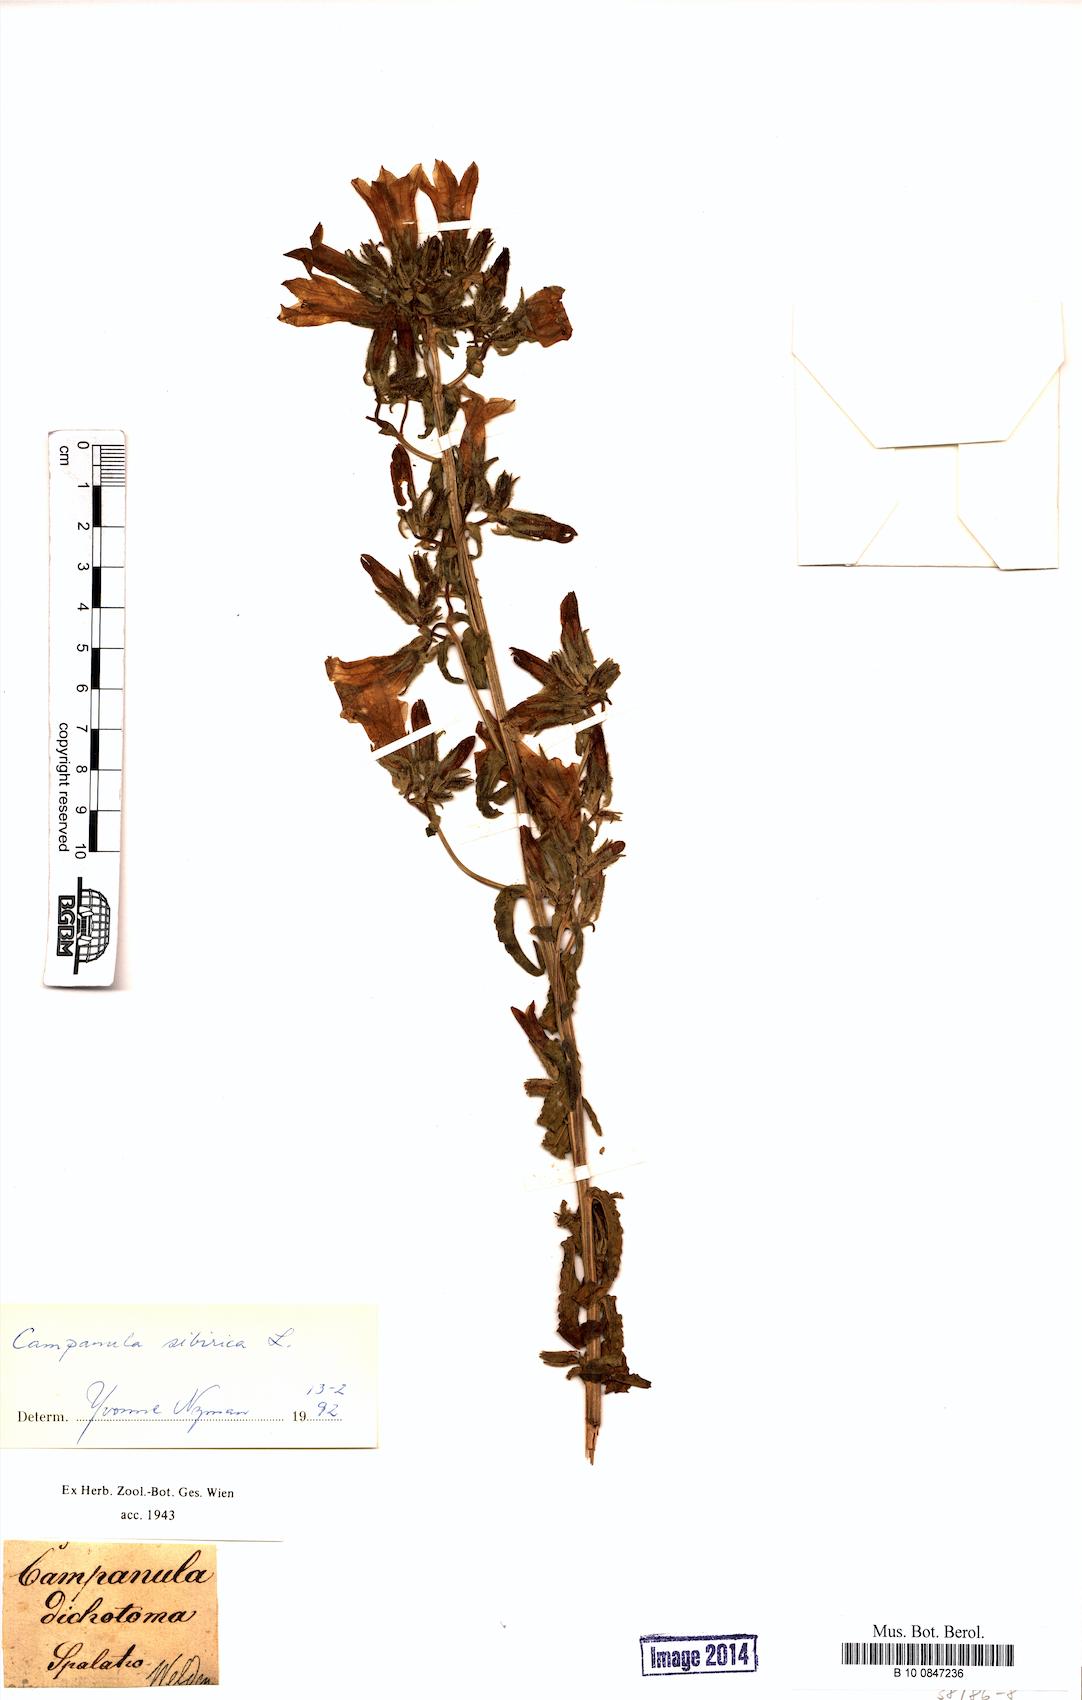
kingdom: Plantae
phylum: Tracheophyta
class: Magnoliopsida
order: Asterales
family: Campanulaceae
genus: Campanula
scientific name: Campanula sibirica
